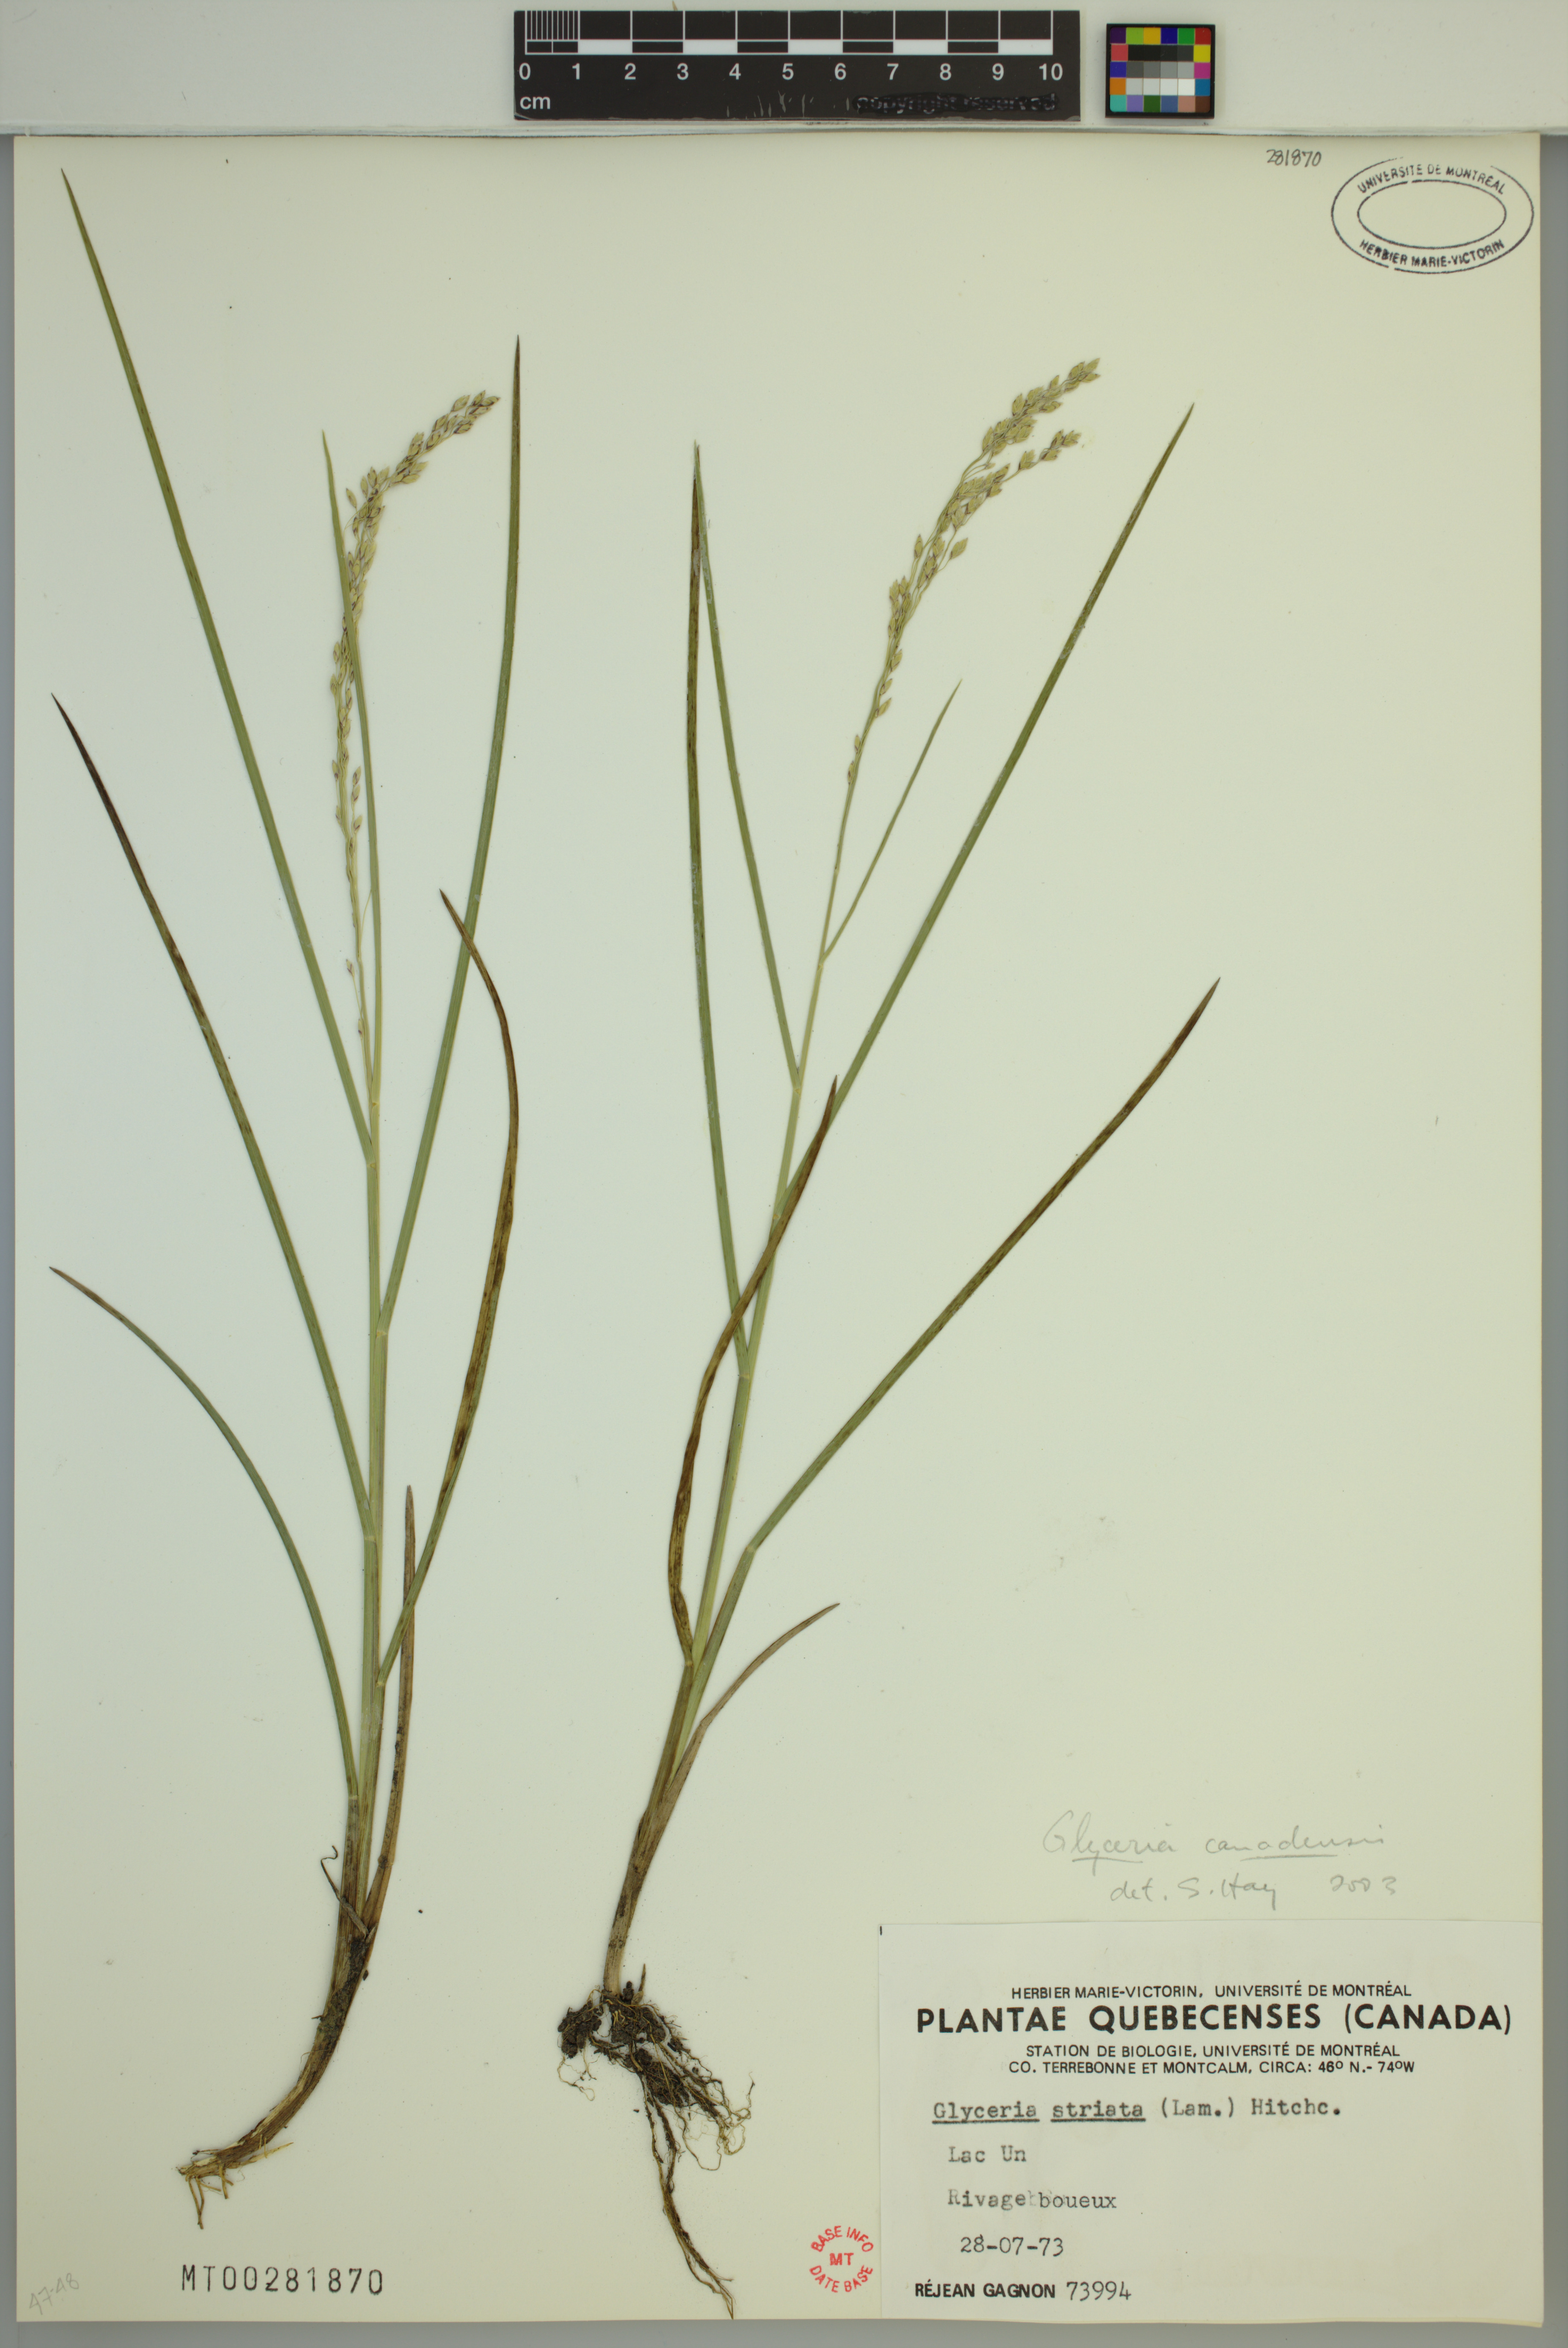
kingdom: Plantae
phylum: Tracheophyta
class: Liliopsida
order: Poales
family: Poaceae
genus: Glyceria
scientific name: Glyceria canadensis
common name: Canada mannagrass
